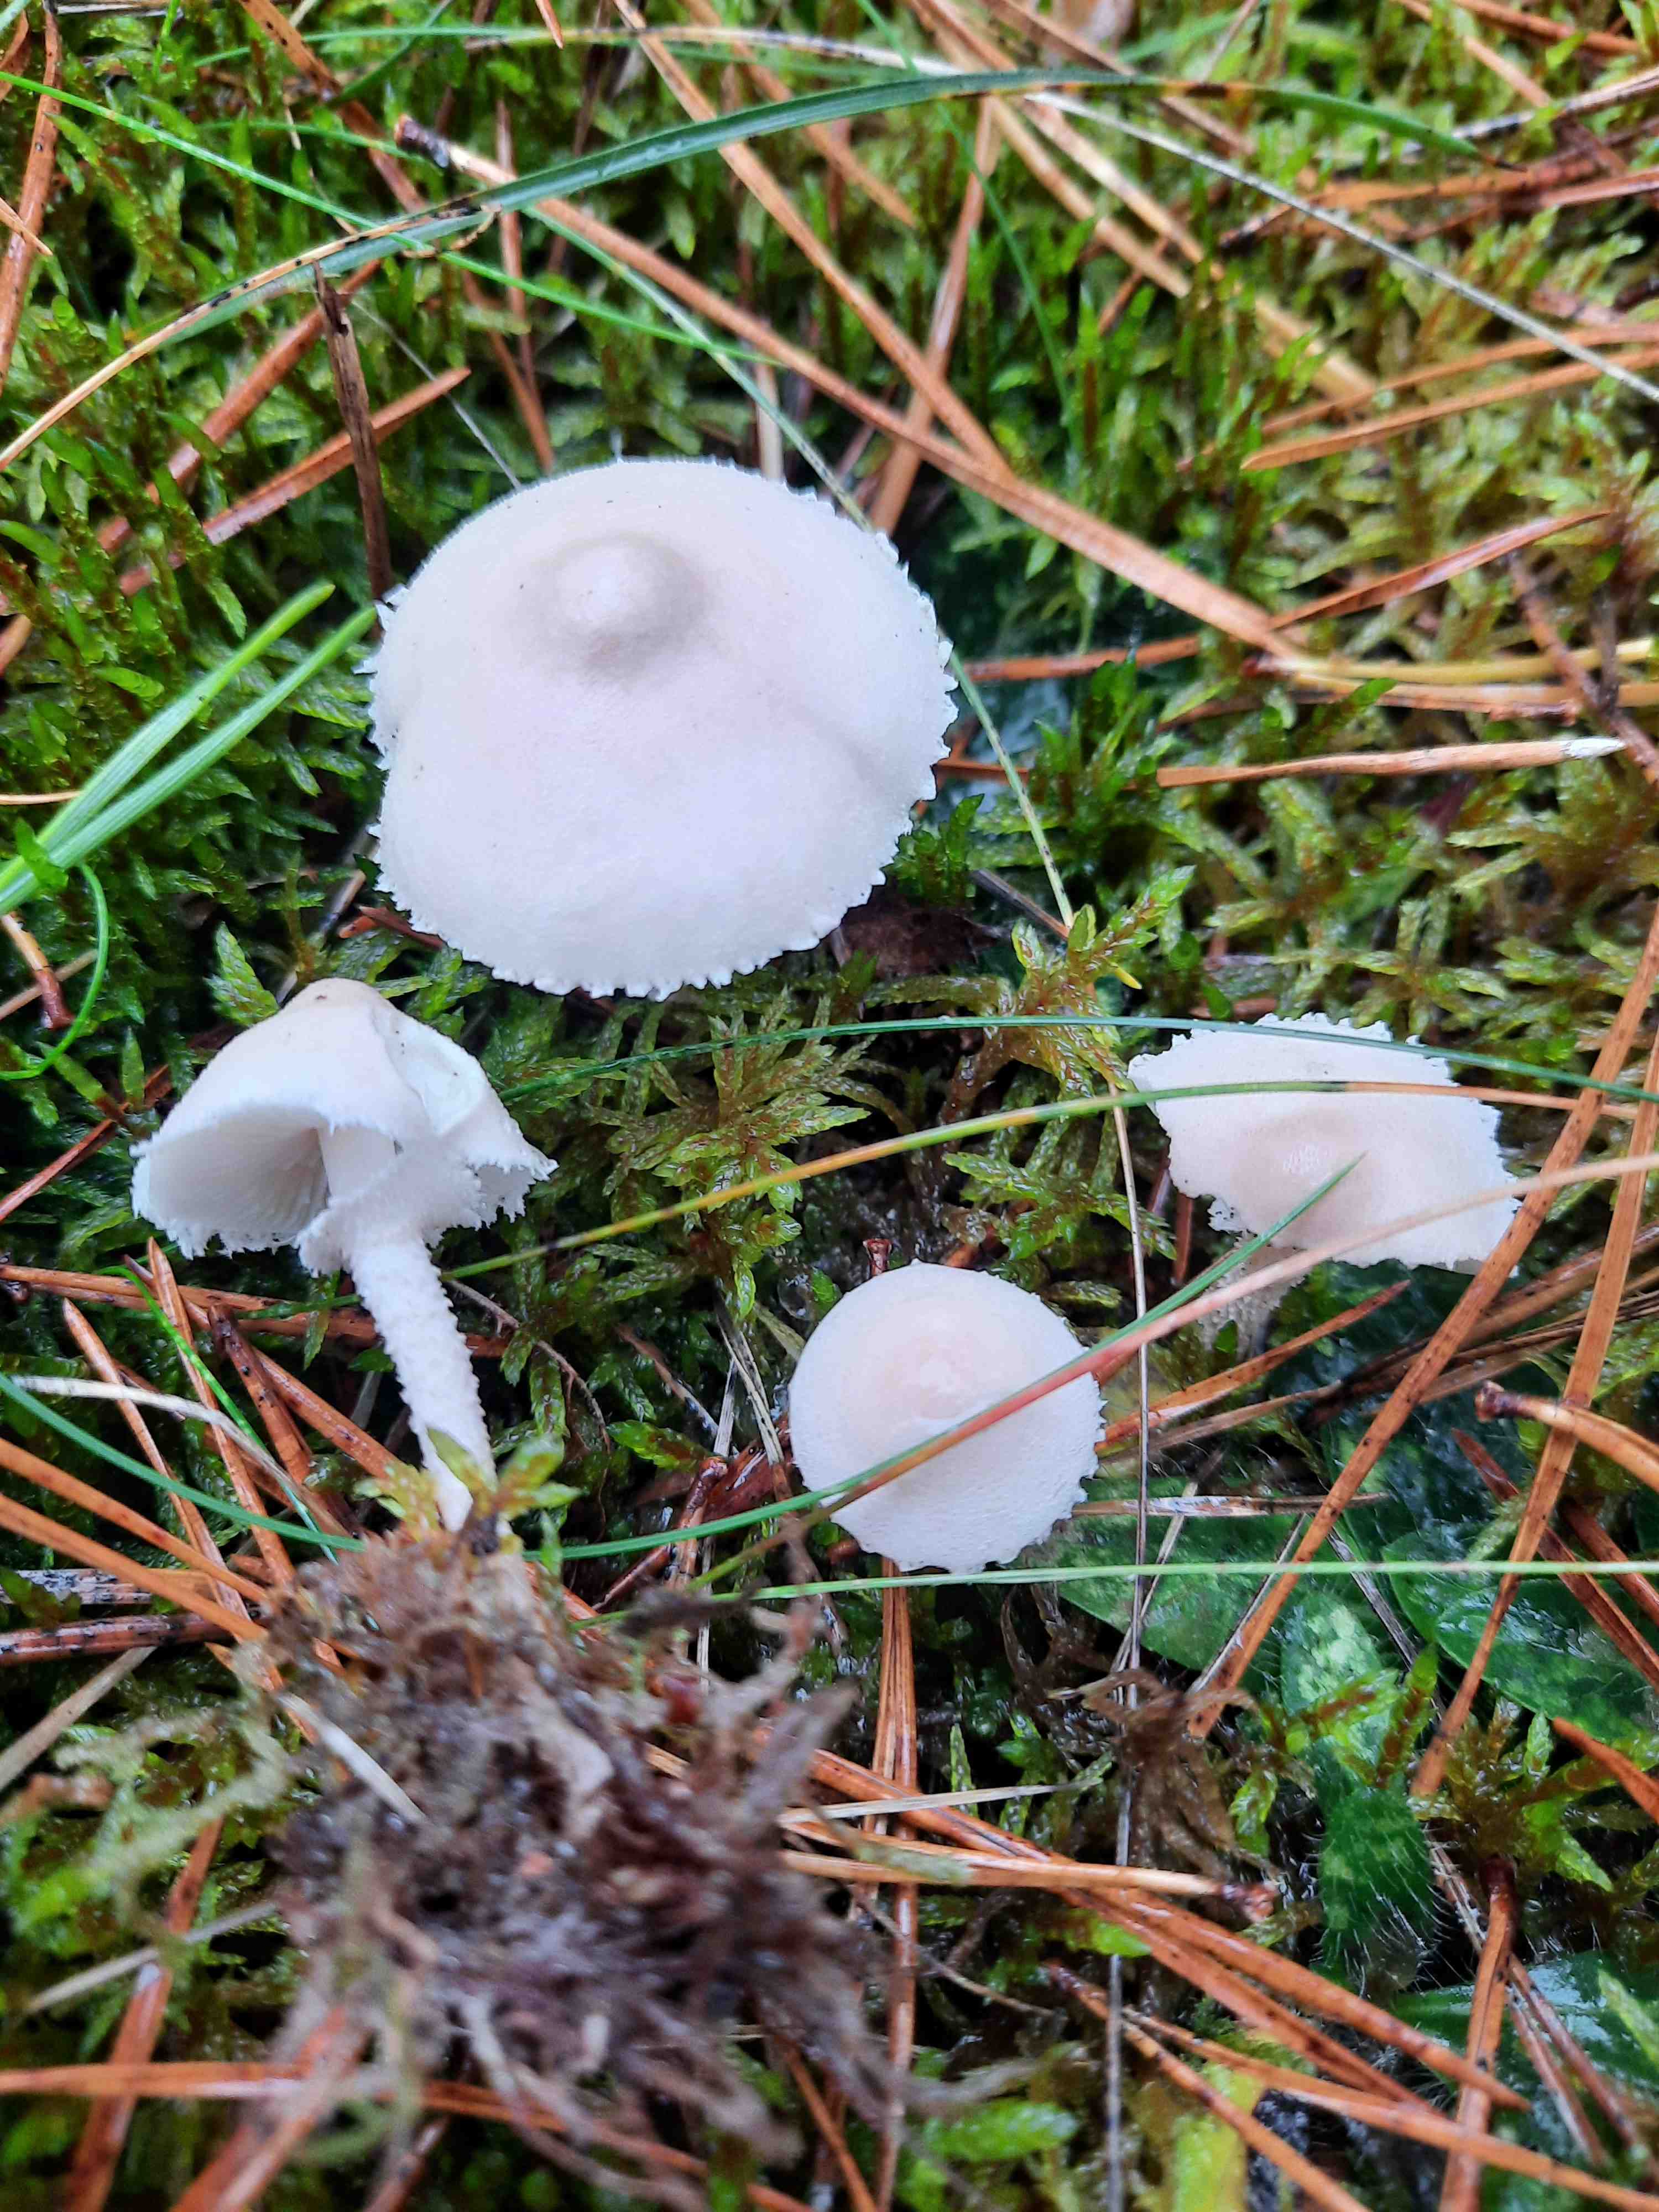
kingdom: Fungi
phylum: Basidiomycota
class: Agaricomycetes
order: Agaricales
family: Tricholomataceae
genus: Cystoderma
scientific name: Cystoderma carcharias
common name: rødgrå grynhat
